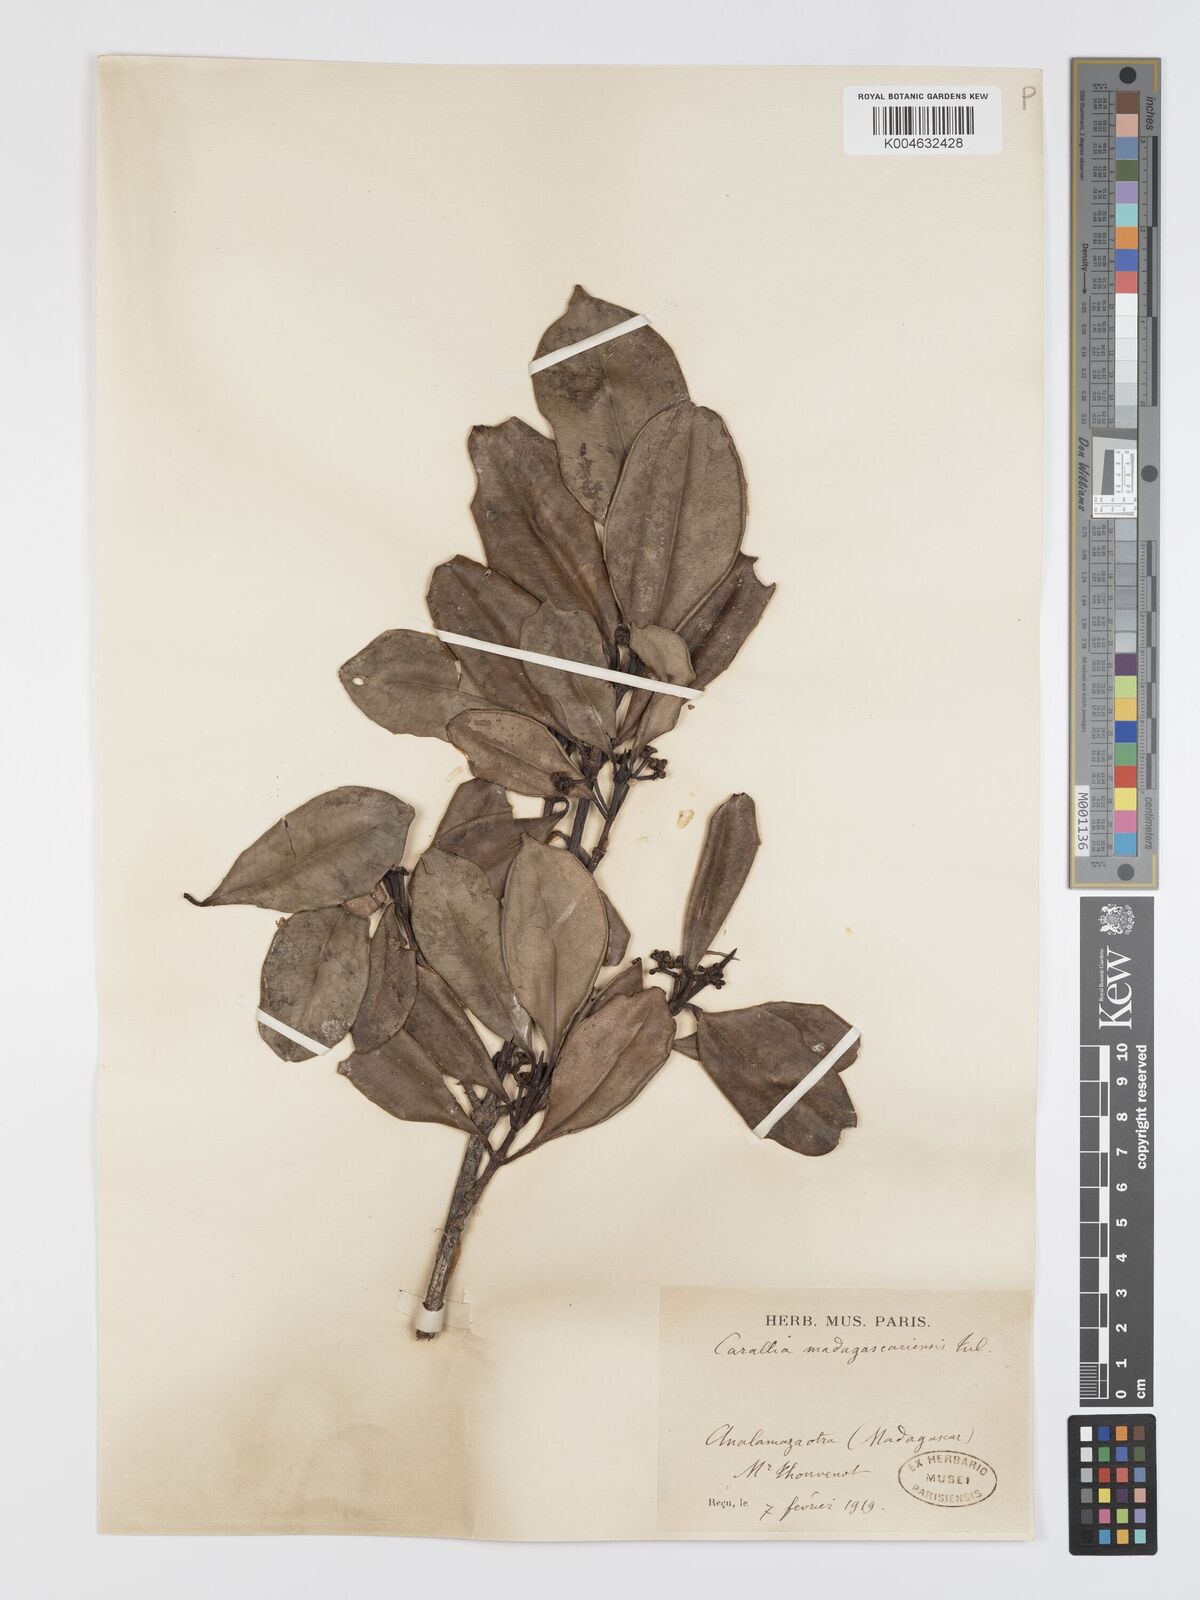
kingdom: Plantae
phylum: Tracheophyta
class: Magnoliopsida
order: Malpighiales
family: Rhizophoraceae
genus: Carallia
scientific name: Carallia brachiata
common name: Carallawood
